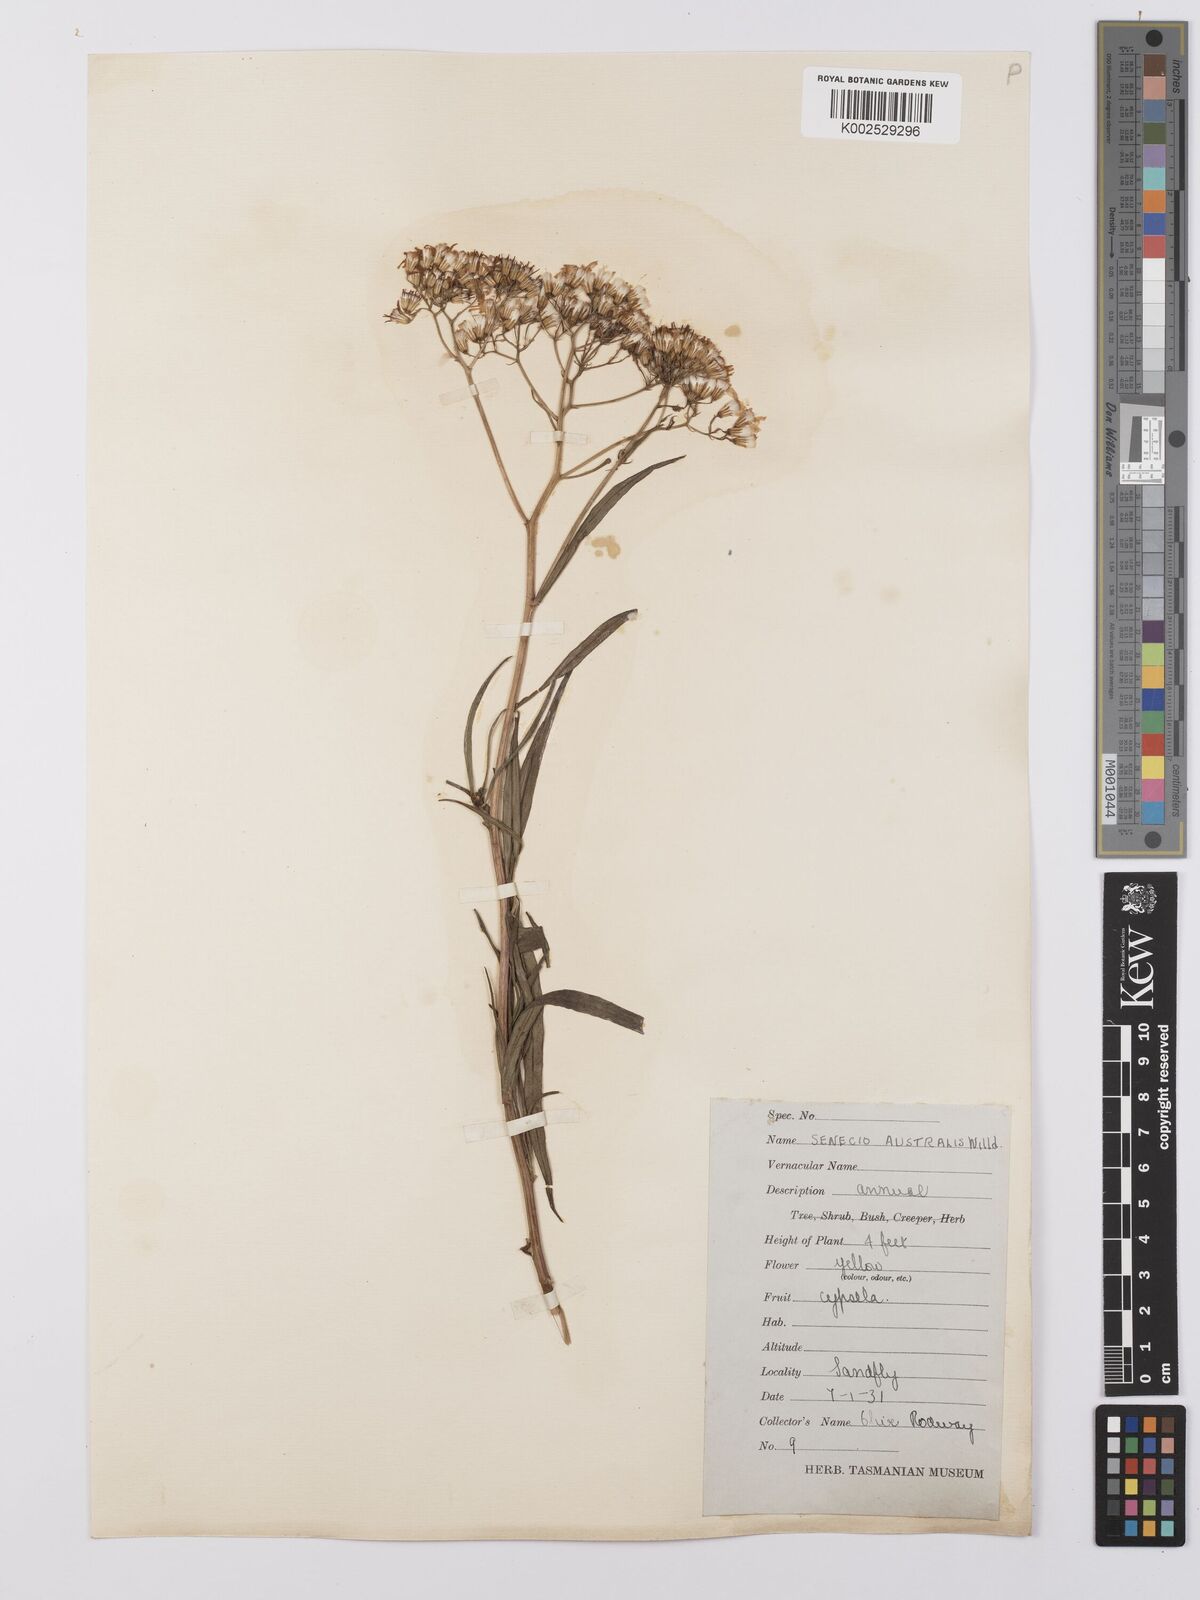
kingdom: Plantae
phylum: Tracheophyta
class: Magnoliopsida
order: Asterales
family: Asteraceae
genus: Senecio
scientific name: Senecio
